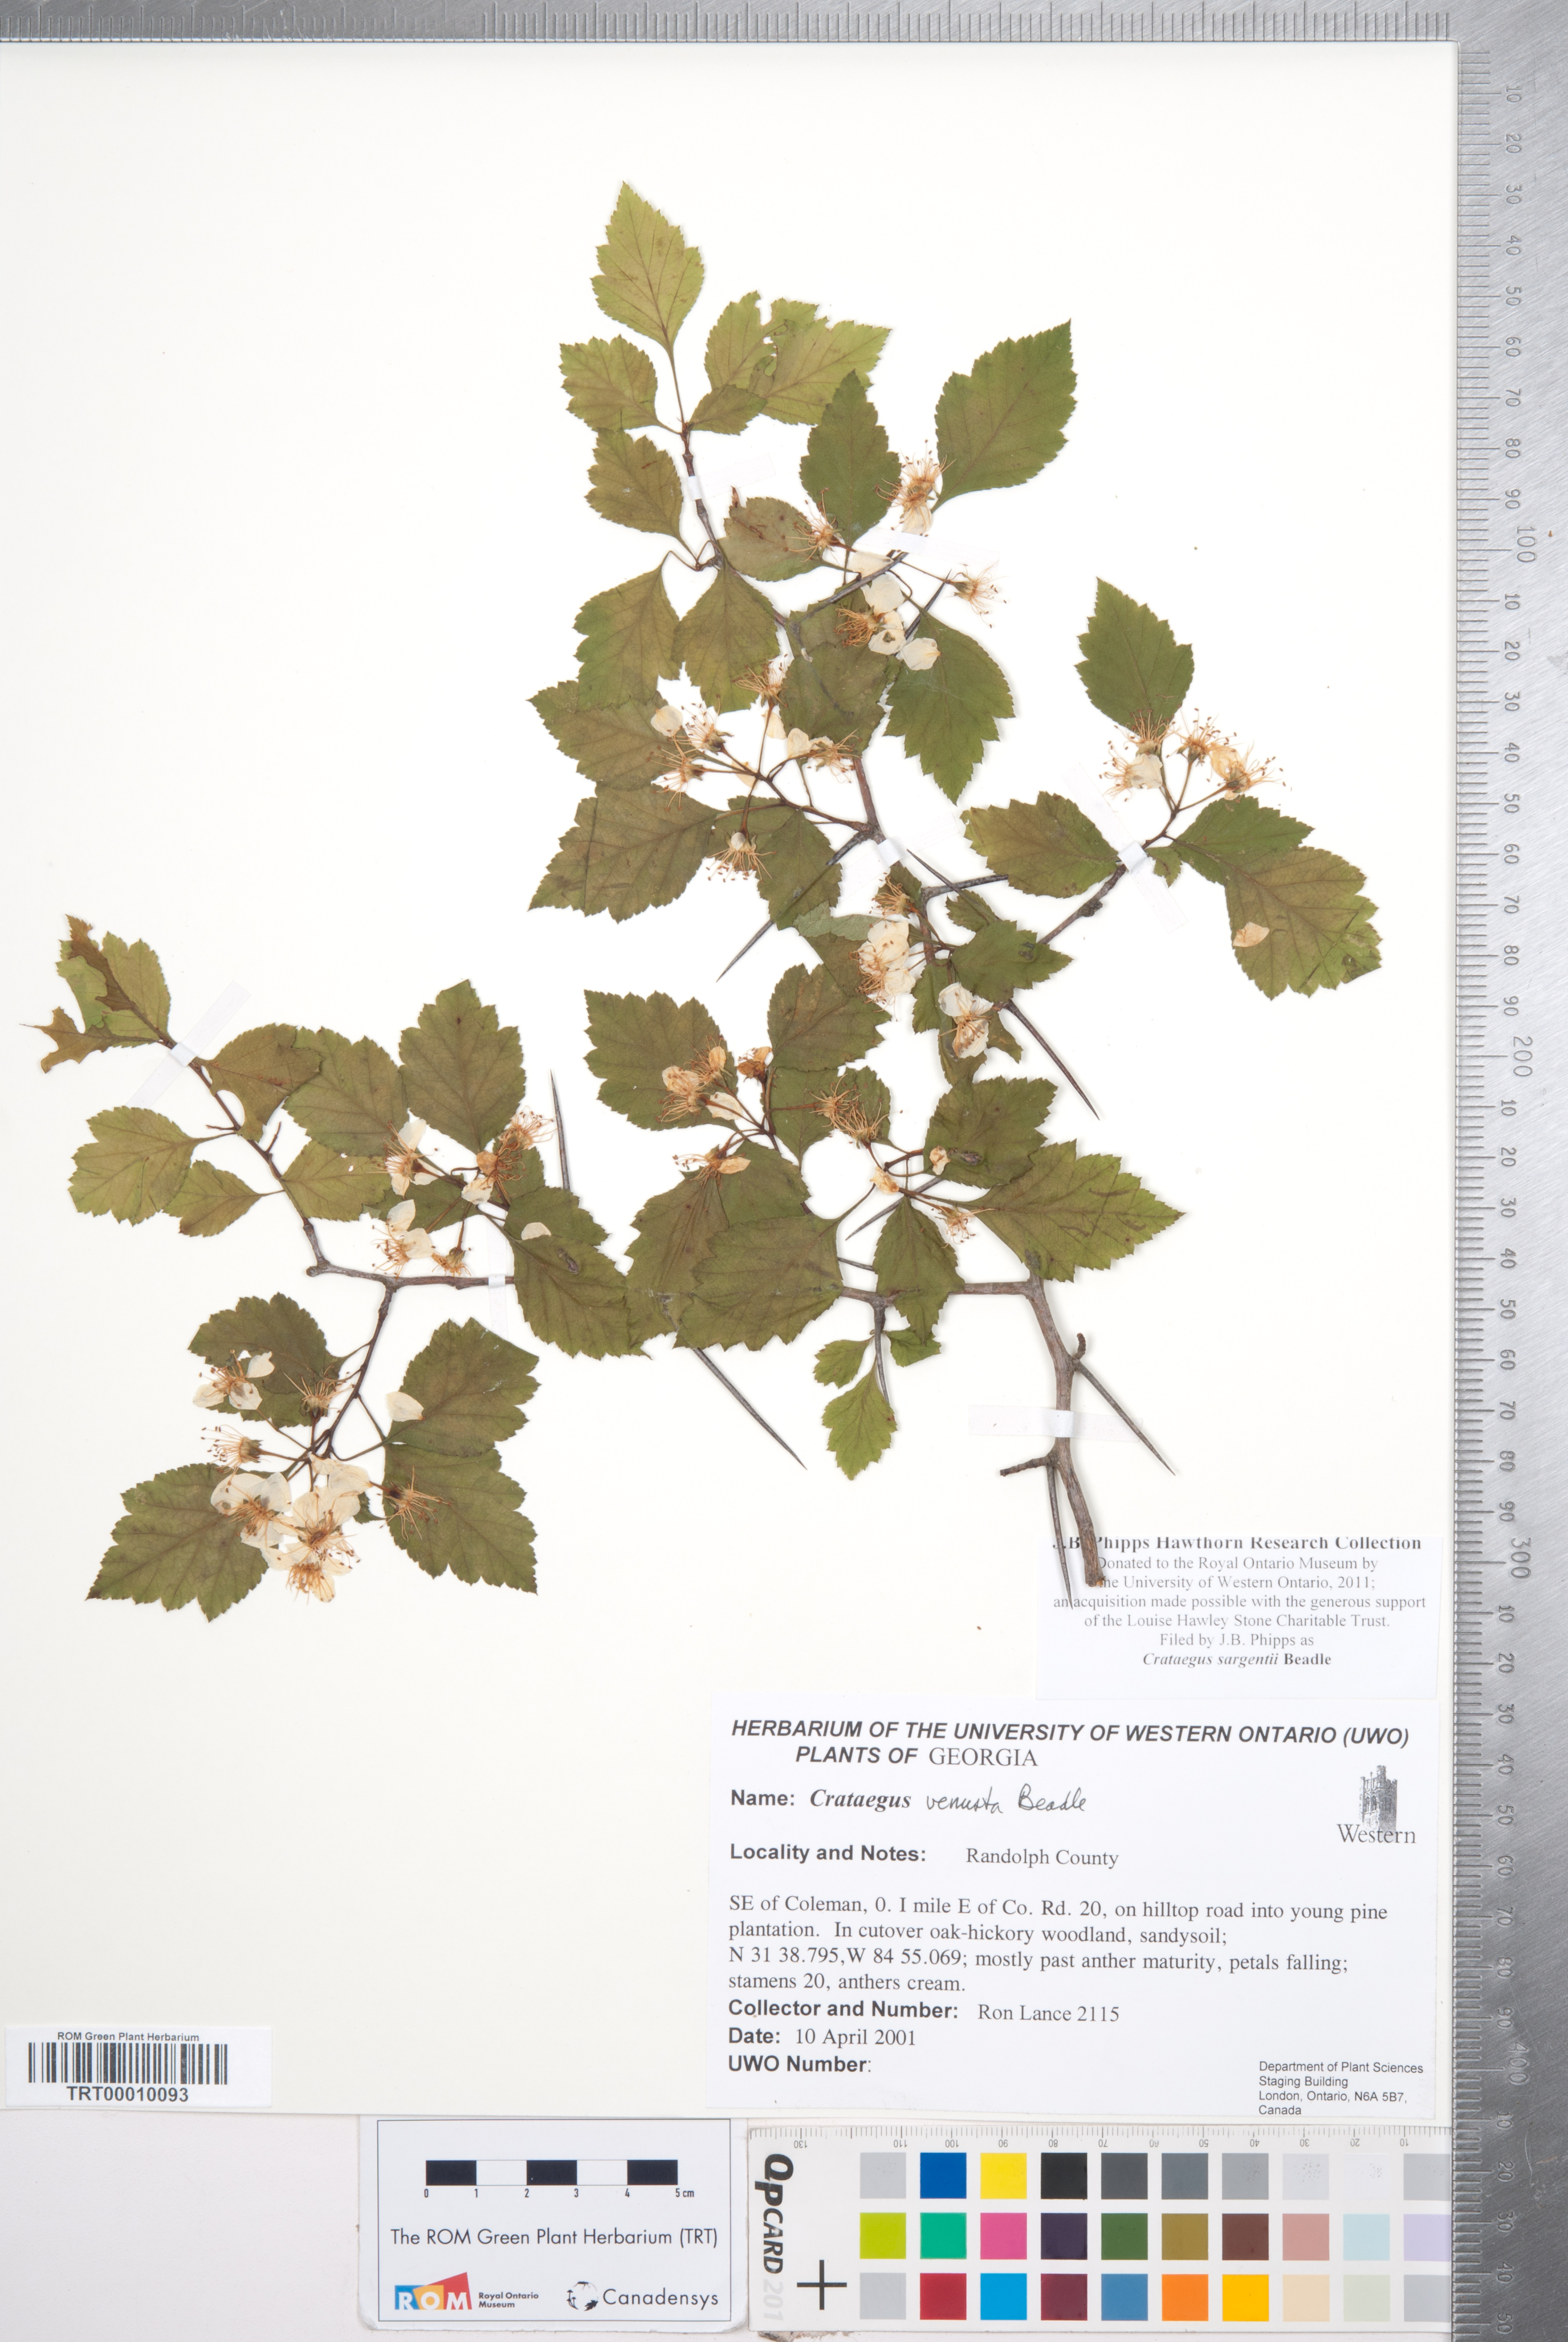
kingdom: Plantae
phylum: Tracheophyta
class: Magnoliopsida
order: Rosales
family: Rosaceae
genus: Crataegus
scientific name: Crataegus sargentii
